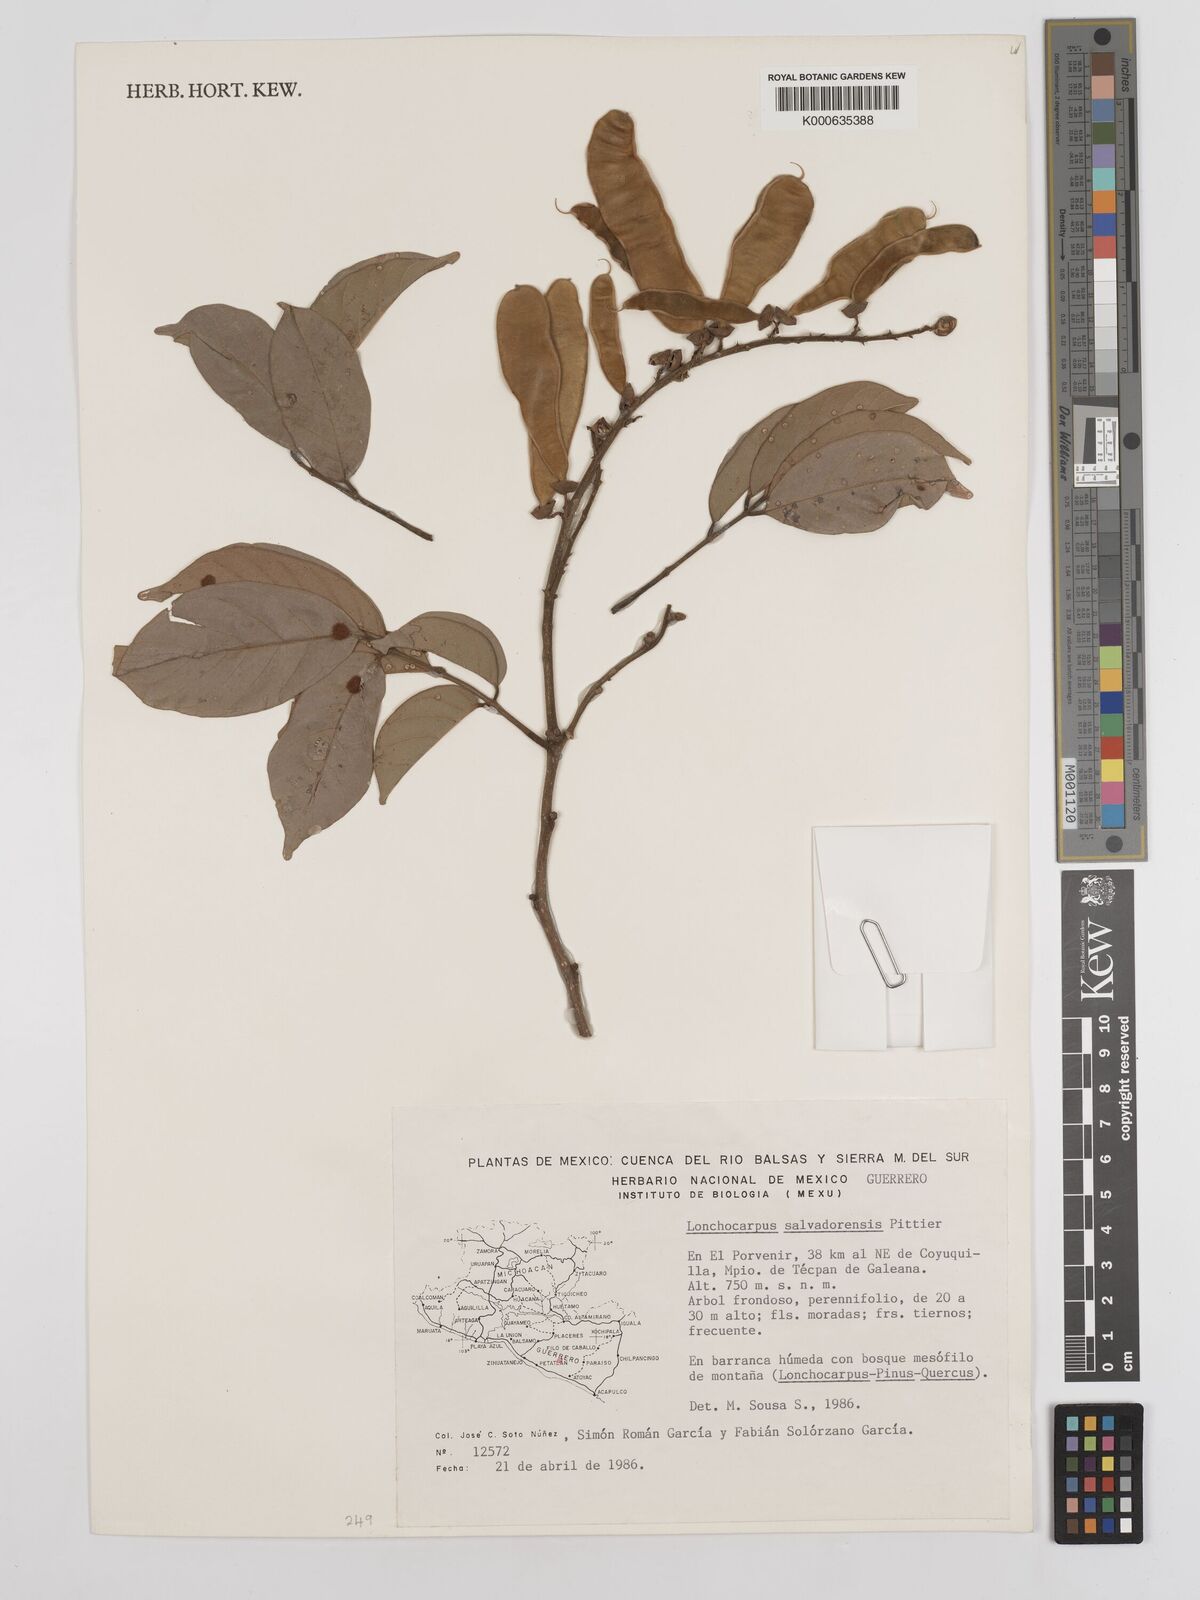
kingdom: Plantae
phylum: Tracheophyta
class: Magnoliopsida
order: Fabales
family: Fabaceae
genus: Lonchocarpus
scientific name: Lonchocarpus salvadorensis
